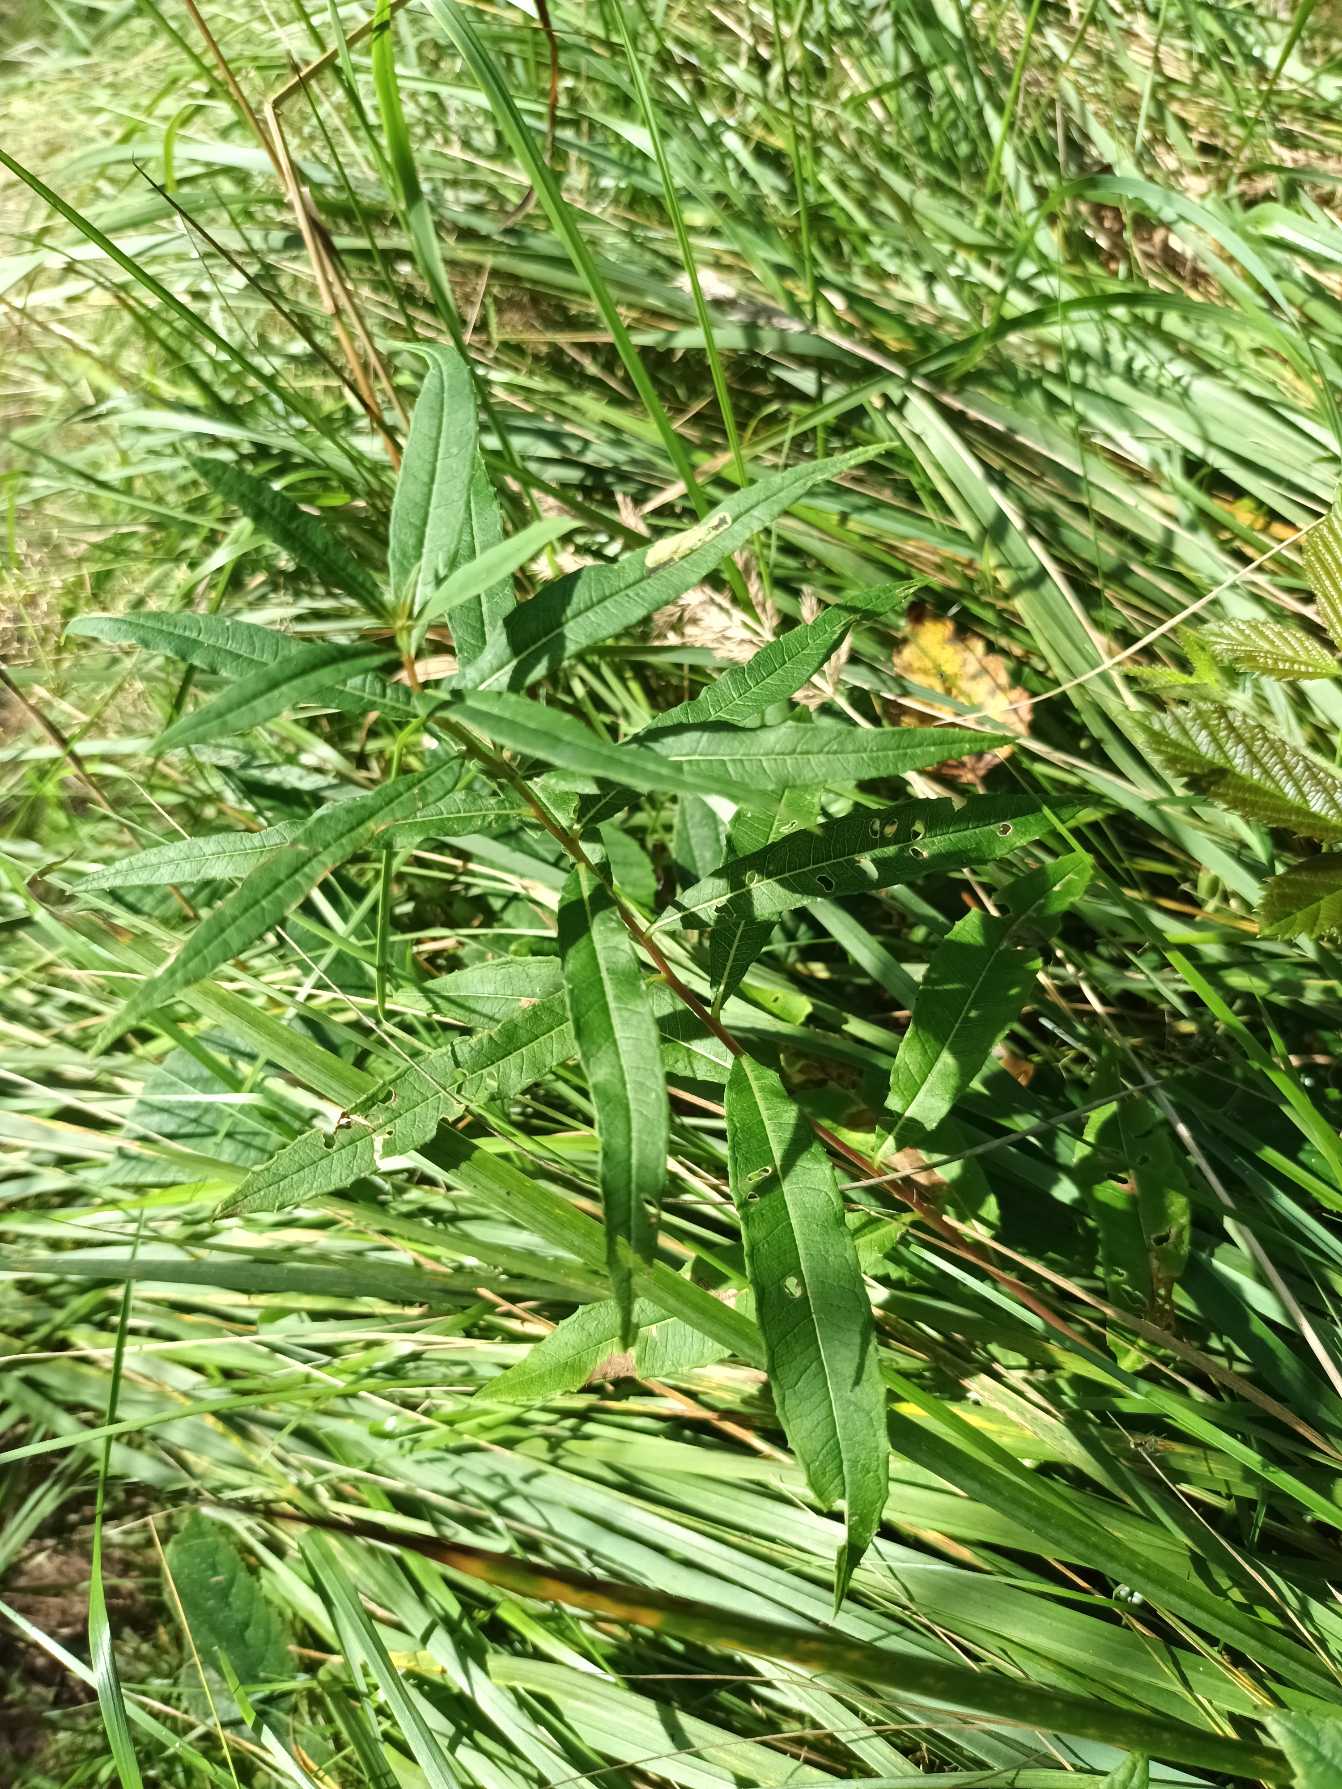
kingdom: Plantae
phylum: Tracheophyta
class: Magnoliopsida
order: Myrtales
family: Onagraceae
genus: Chamaenerion
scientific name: Chamaenerion angustifolium
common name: Gederams
